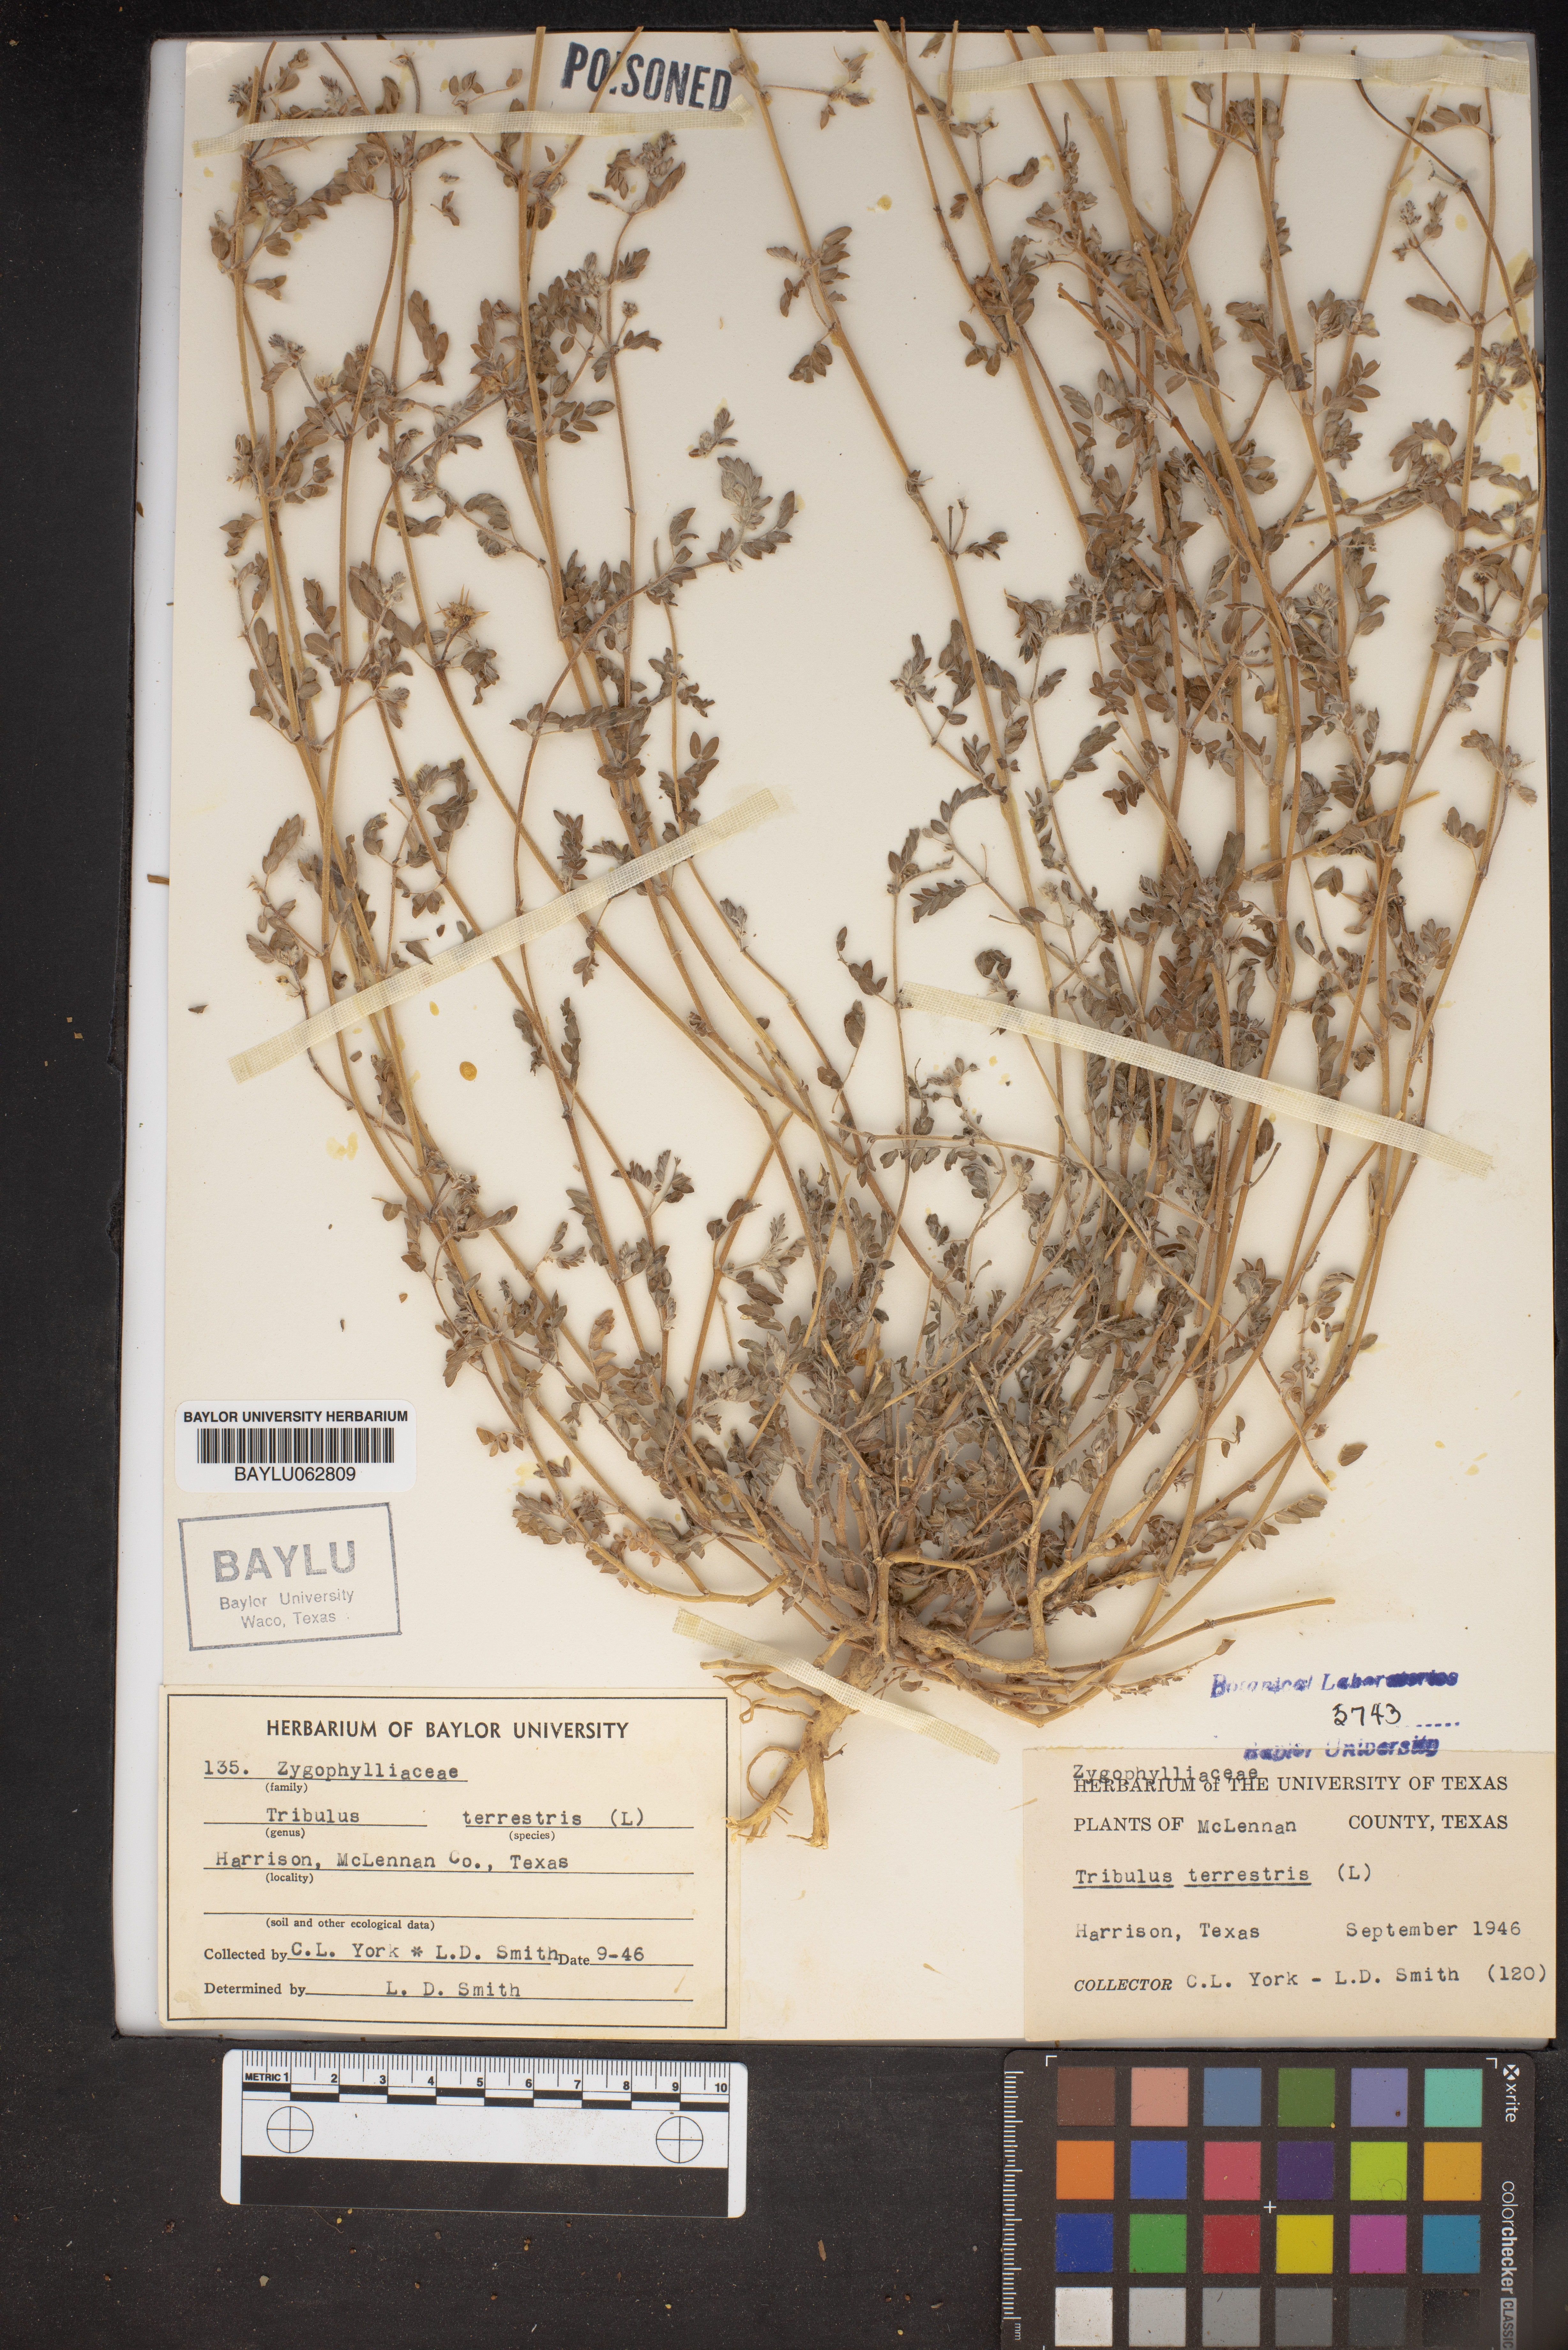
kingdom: Plantae
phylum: Tracheophyta
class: Magnoliopsida
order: Zygophyllales
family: Zygophyllaceae
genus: Tribulus
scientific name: Tribulus terrestris
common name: Puncturevine
